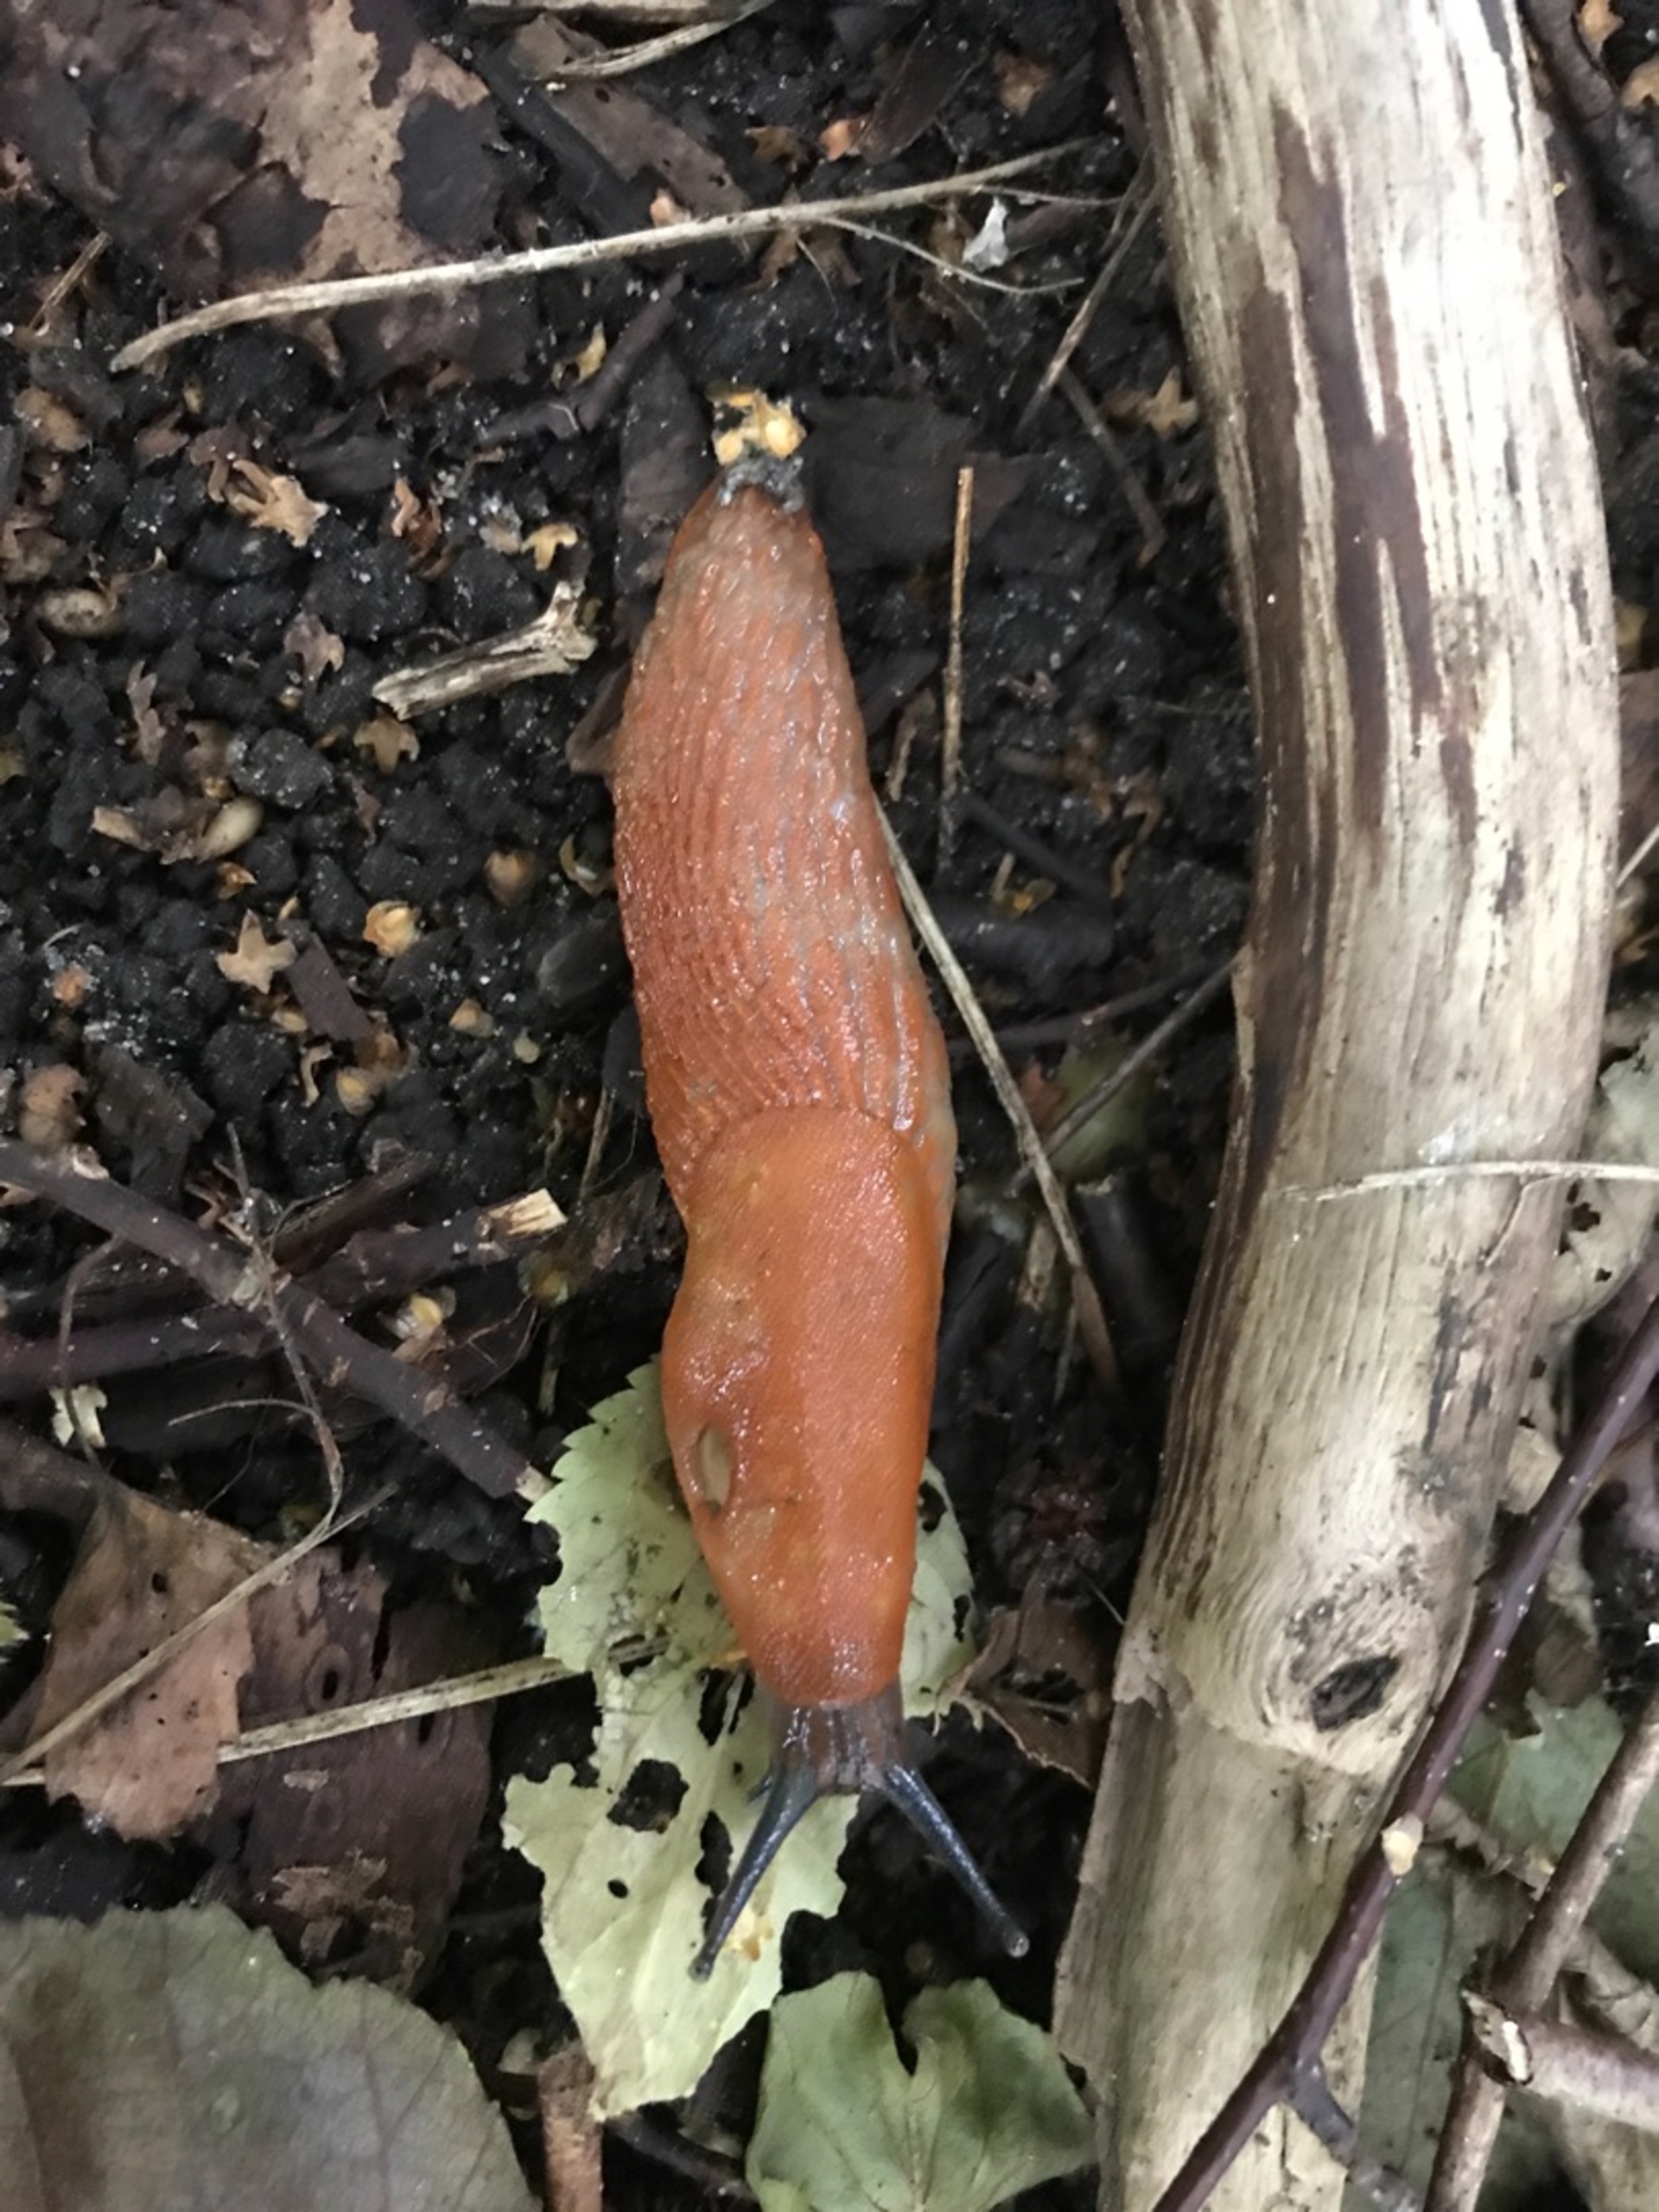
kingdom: Animalia
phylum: Mollusca
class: Gastropoda
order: Stylommatophora
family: Arionidae
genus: Arion
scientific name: Arion vulgaris
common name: Iberisk skovsnegl
